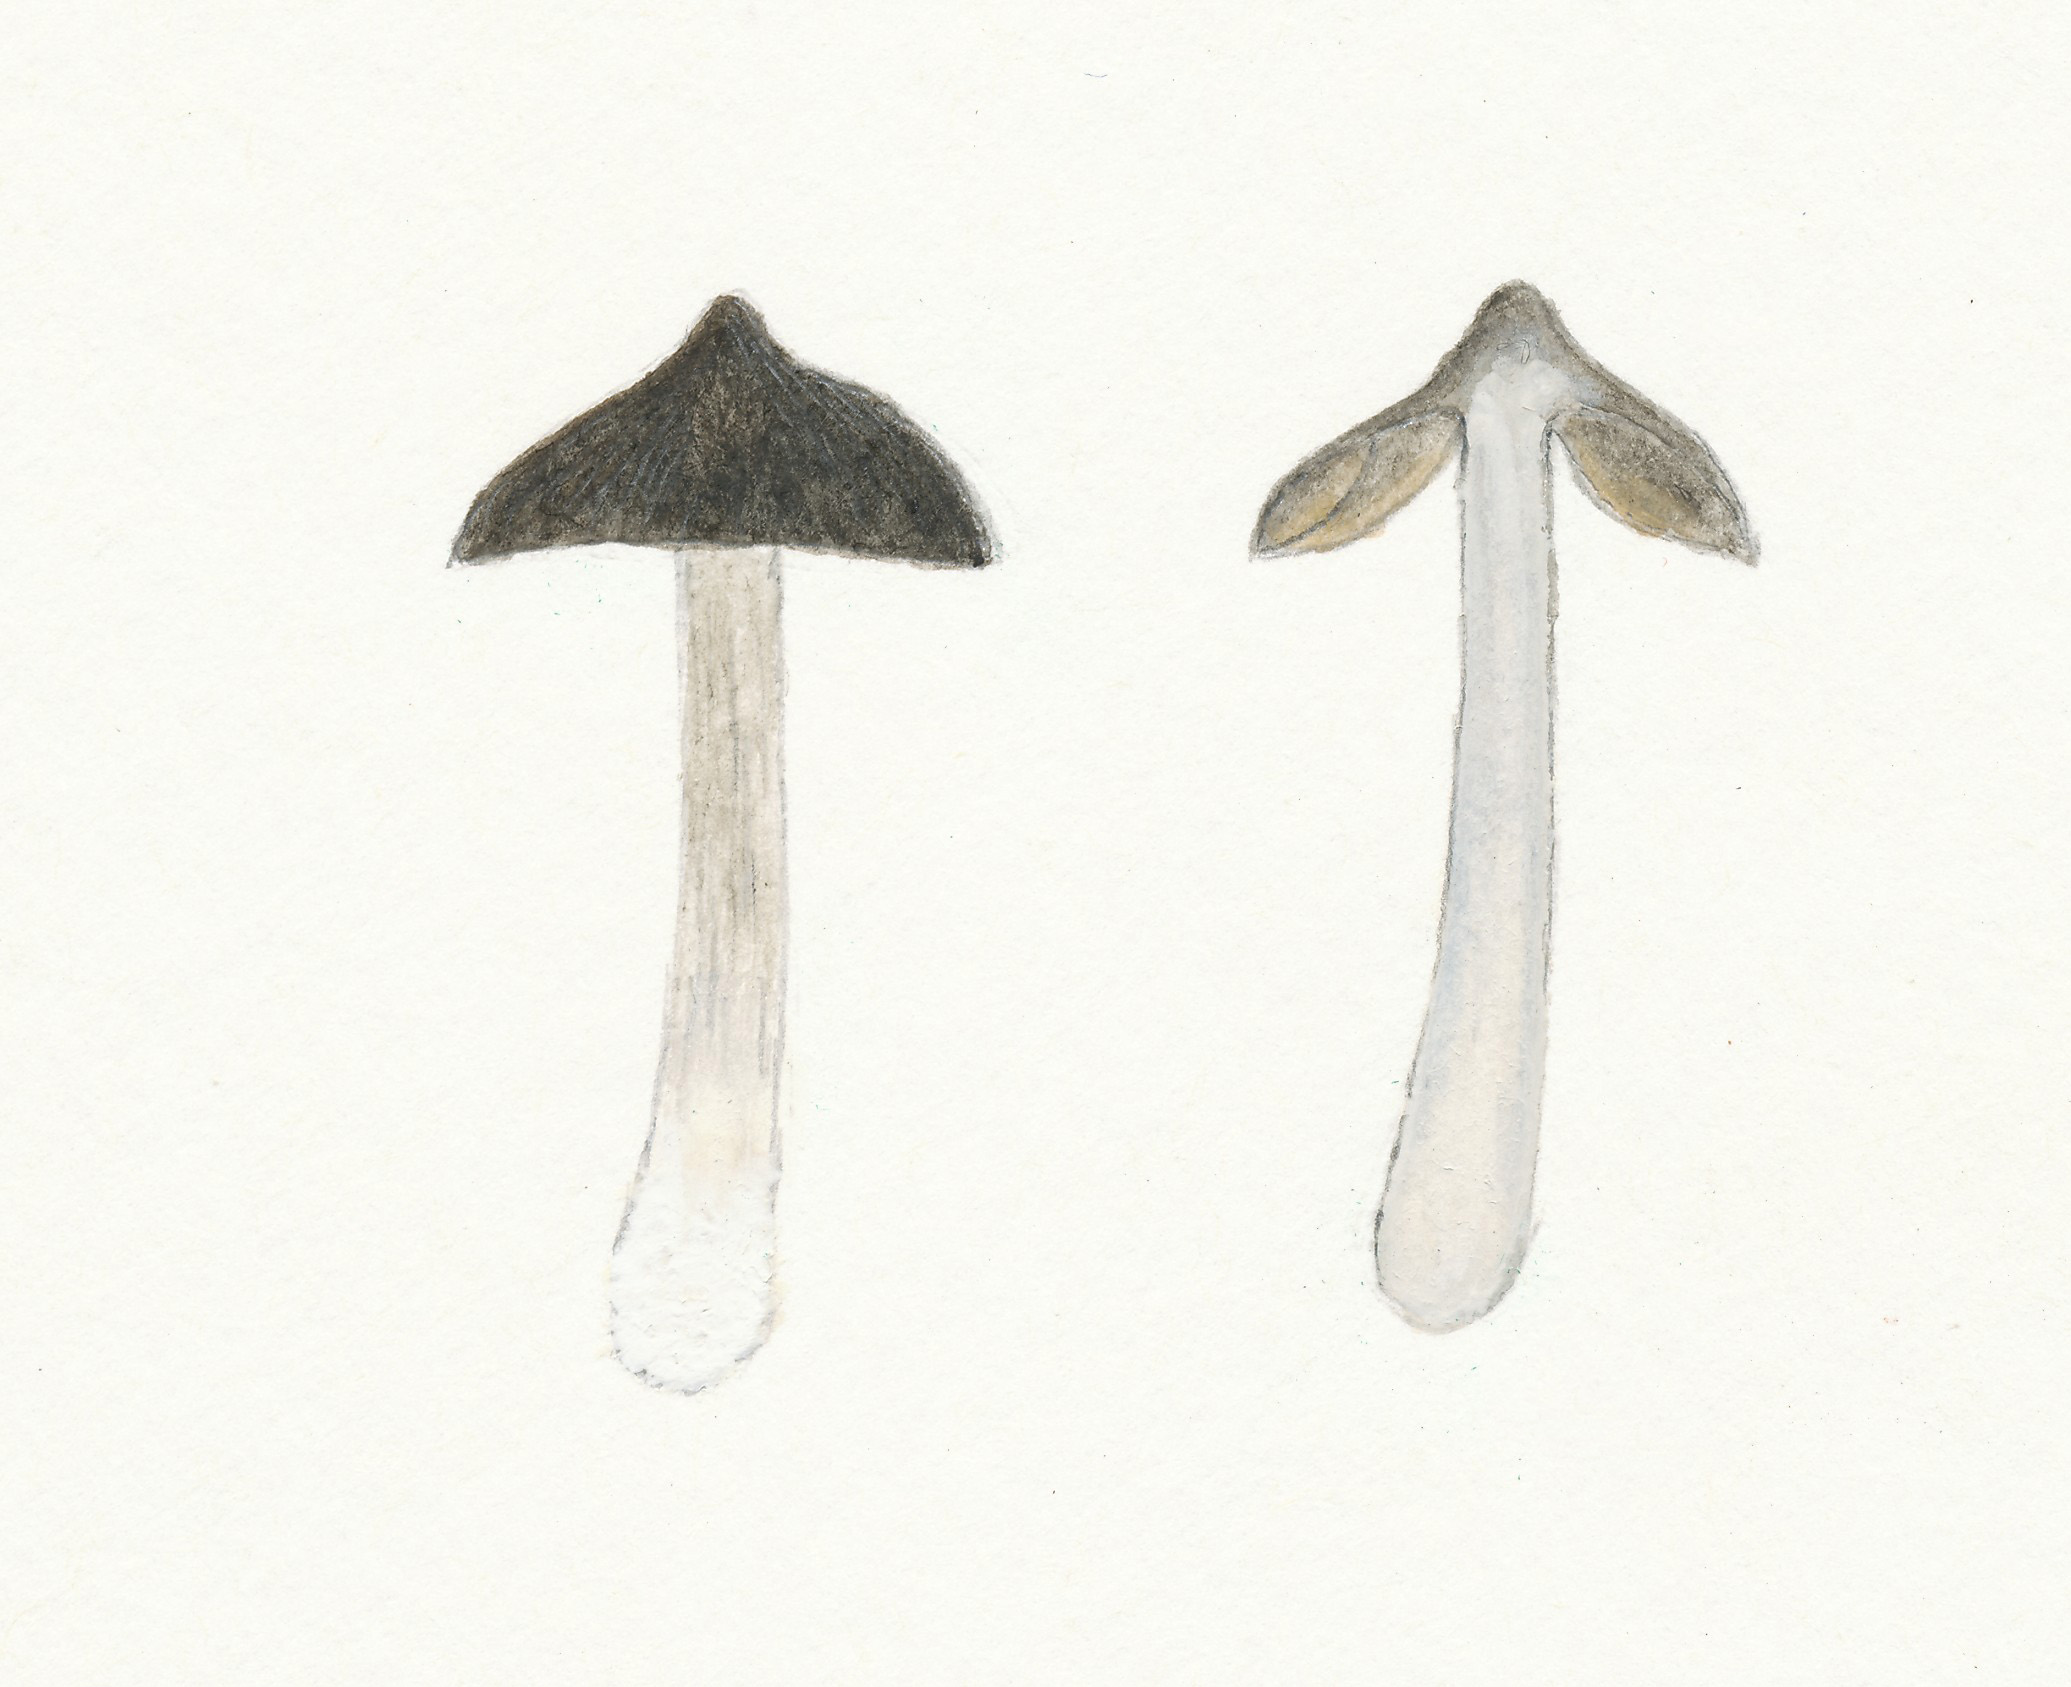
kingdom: Fungi
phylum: Basidiomycota
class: Agaricomycetes
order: Polyporales
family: Hyphodermataceae
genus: Kneiffia
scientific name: Kneiffia subalutacea
